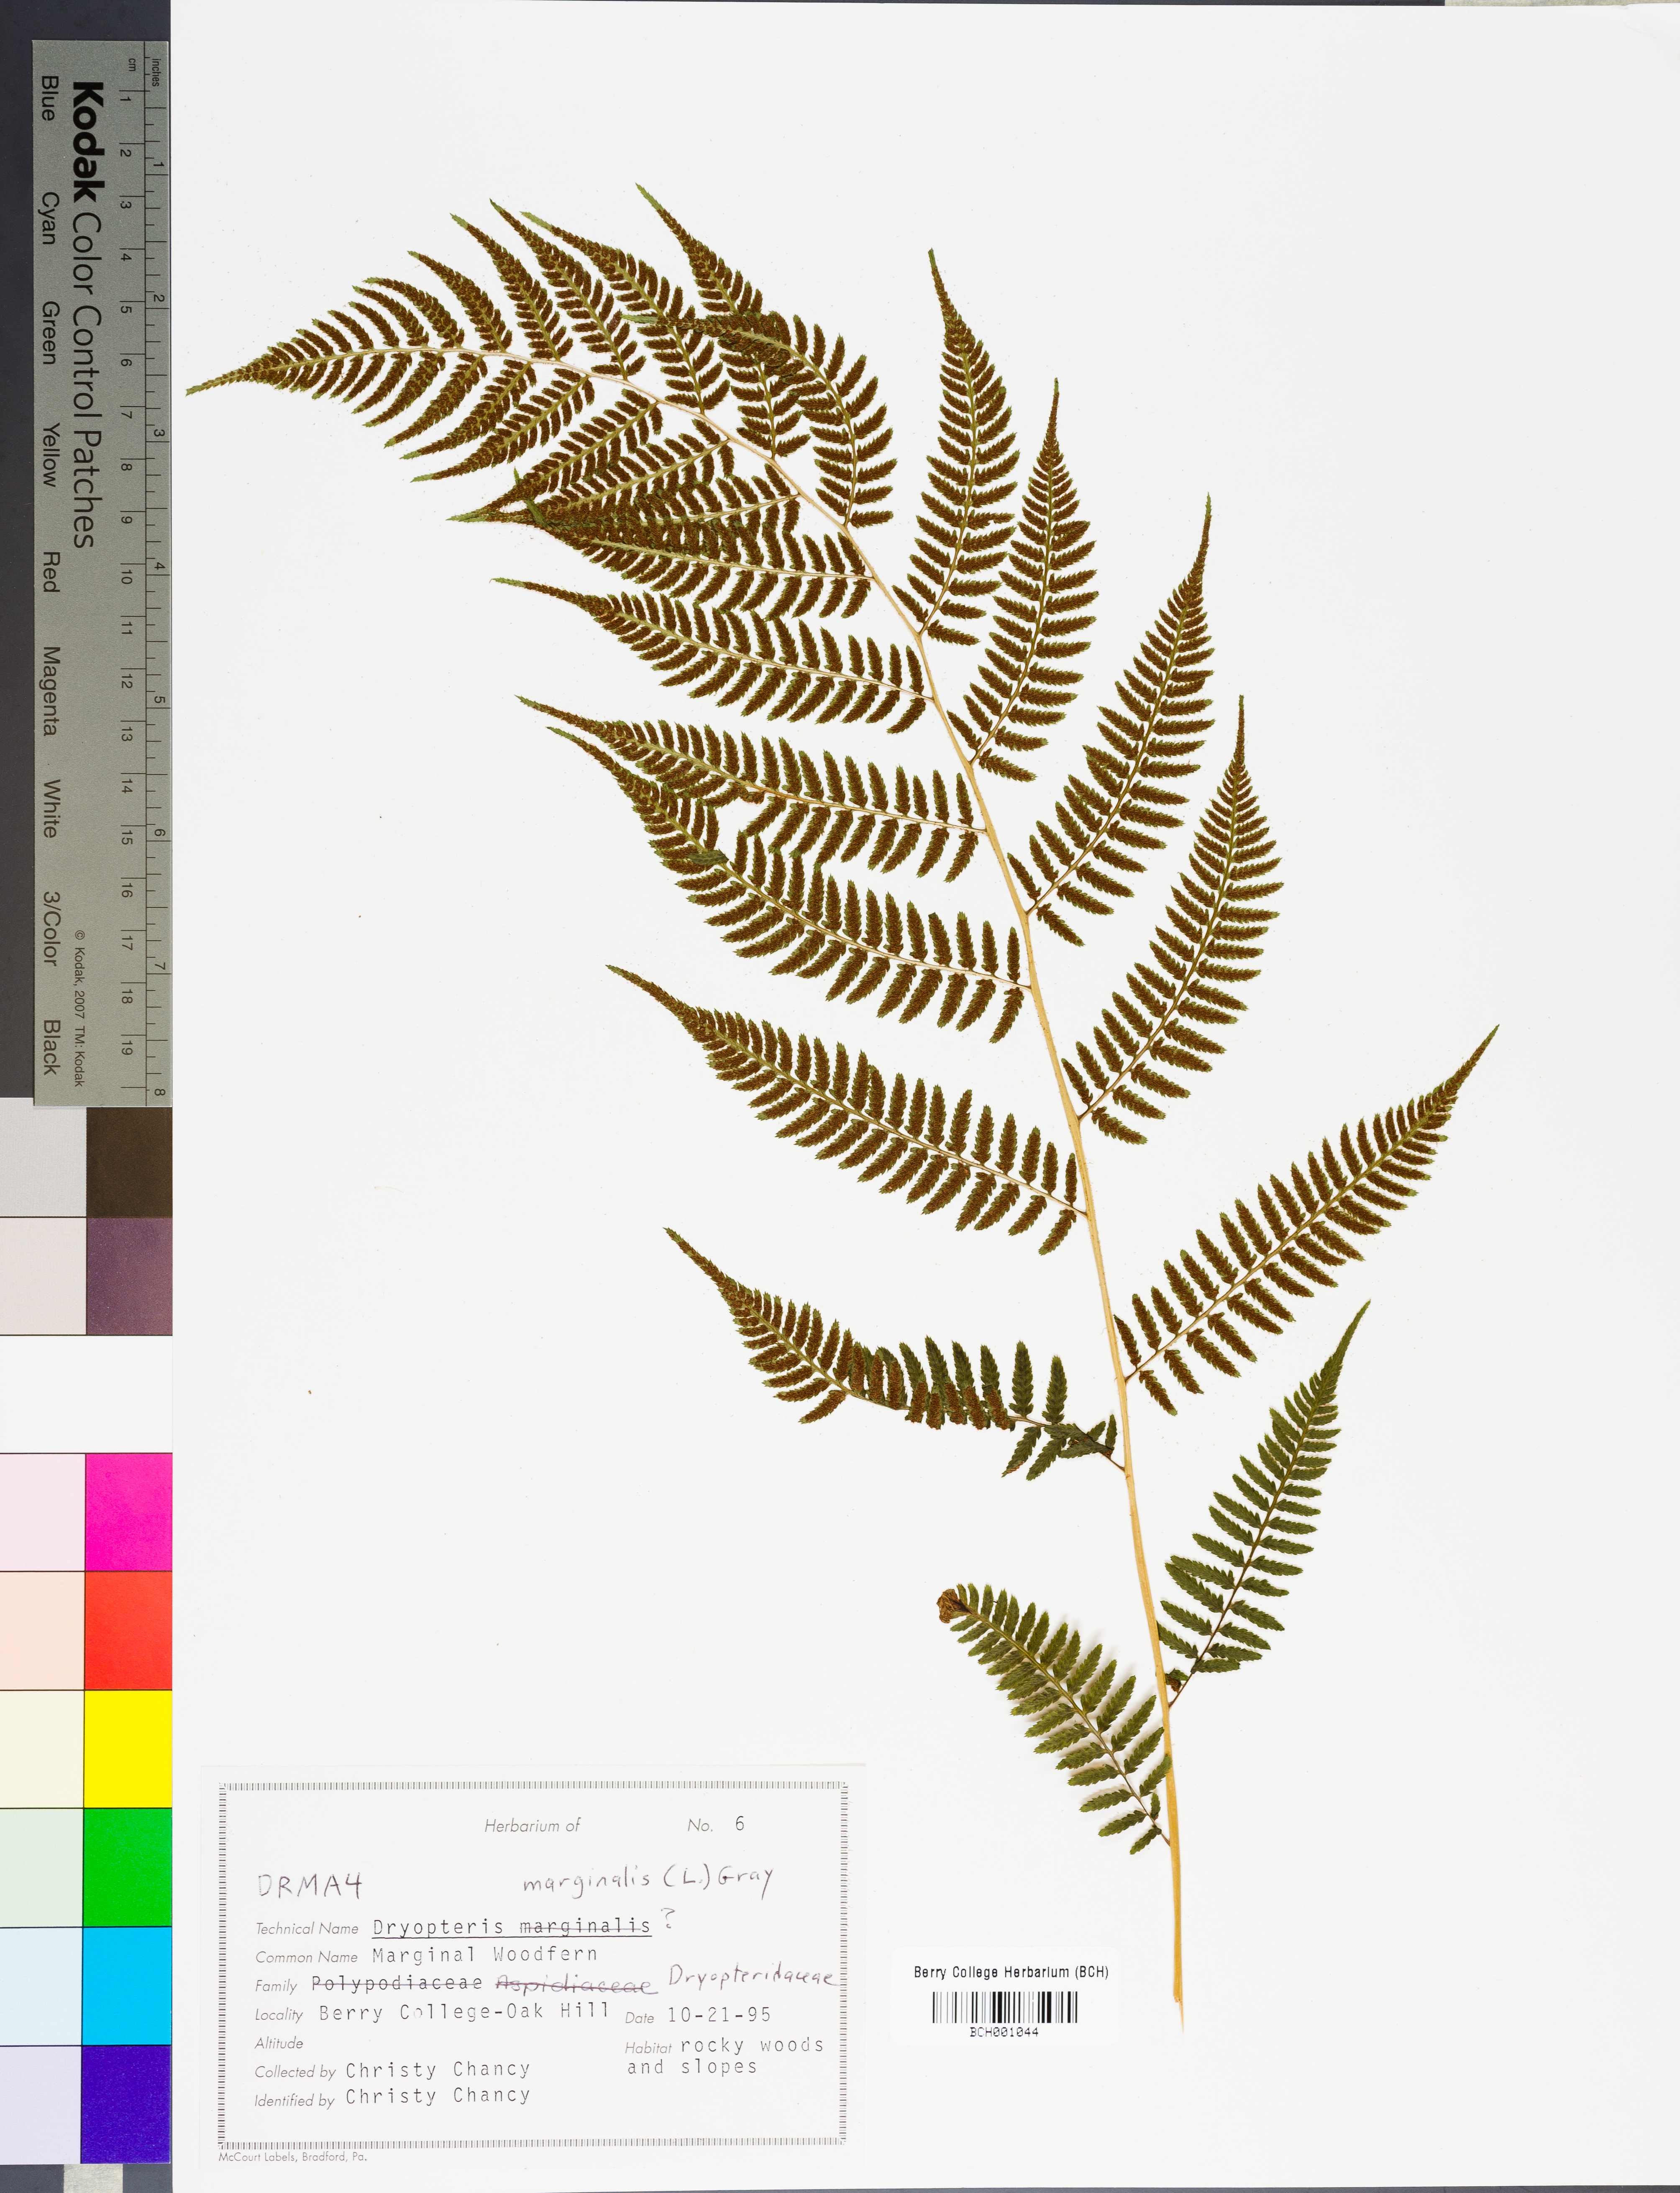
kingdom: Plantae
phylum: Tracheophyta
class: Polypodiopsida
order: Polypodiales
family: Dryopteridaceae
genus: Dryopteris
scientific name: Dryopteris marginalis
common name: Marginal wood fern
